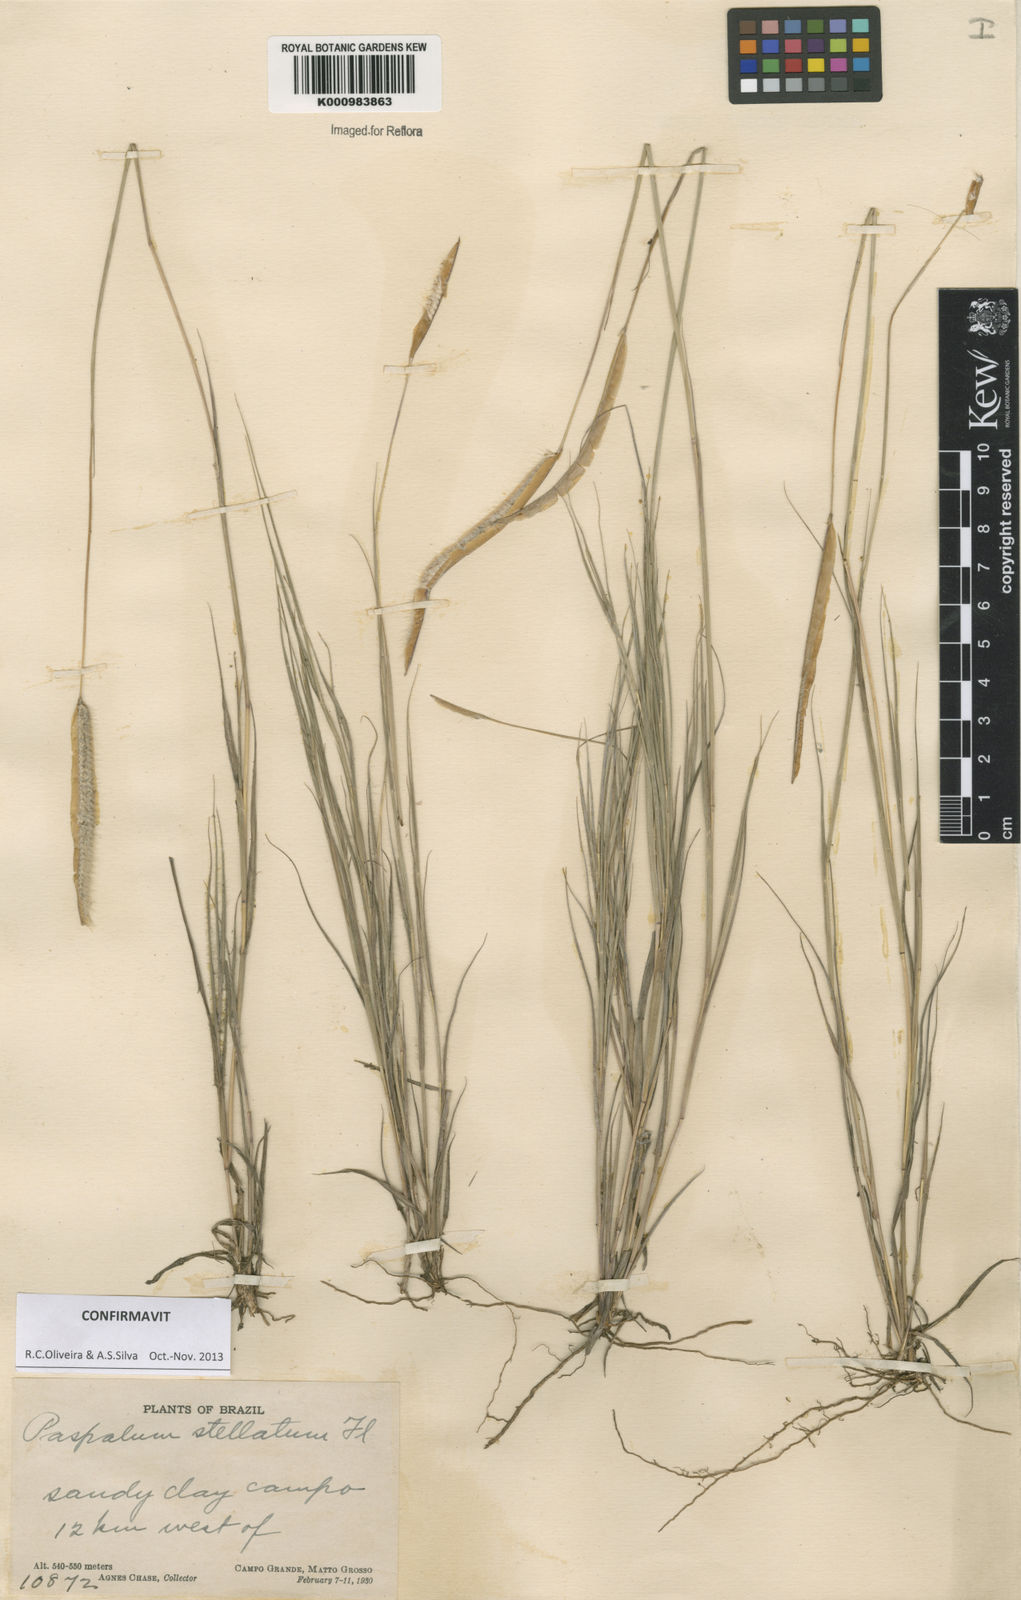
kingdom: Plantae
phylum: Tracheophyta
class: Liliopsida
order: Poales
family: Poaceae
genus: Paspalum
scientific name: Paspalum
